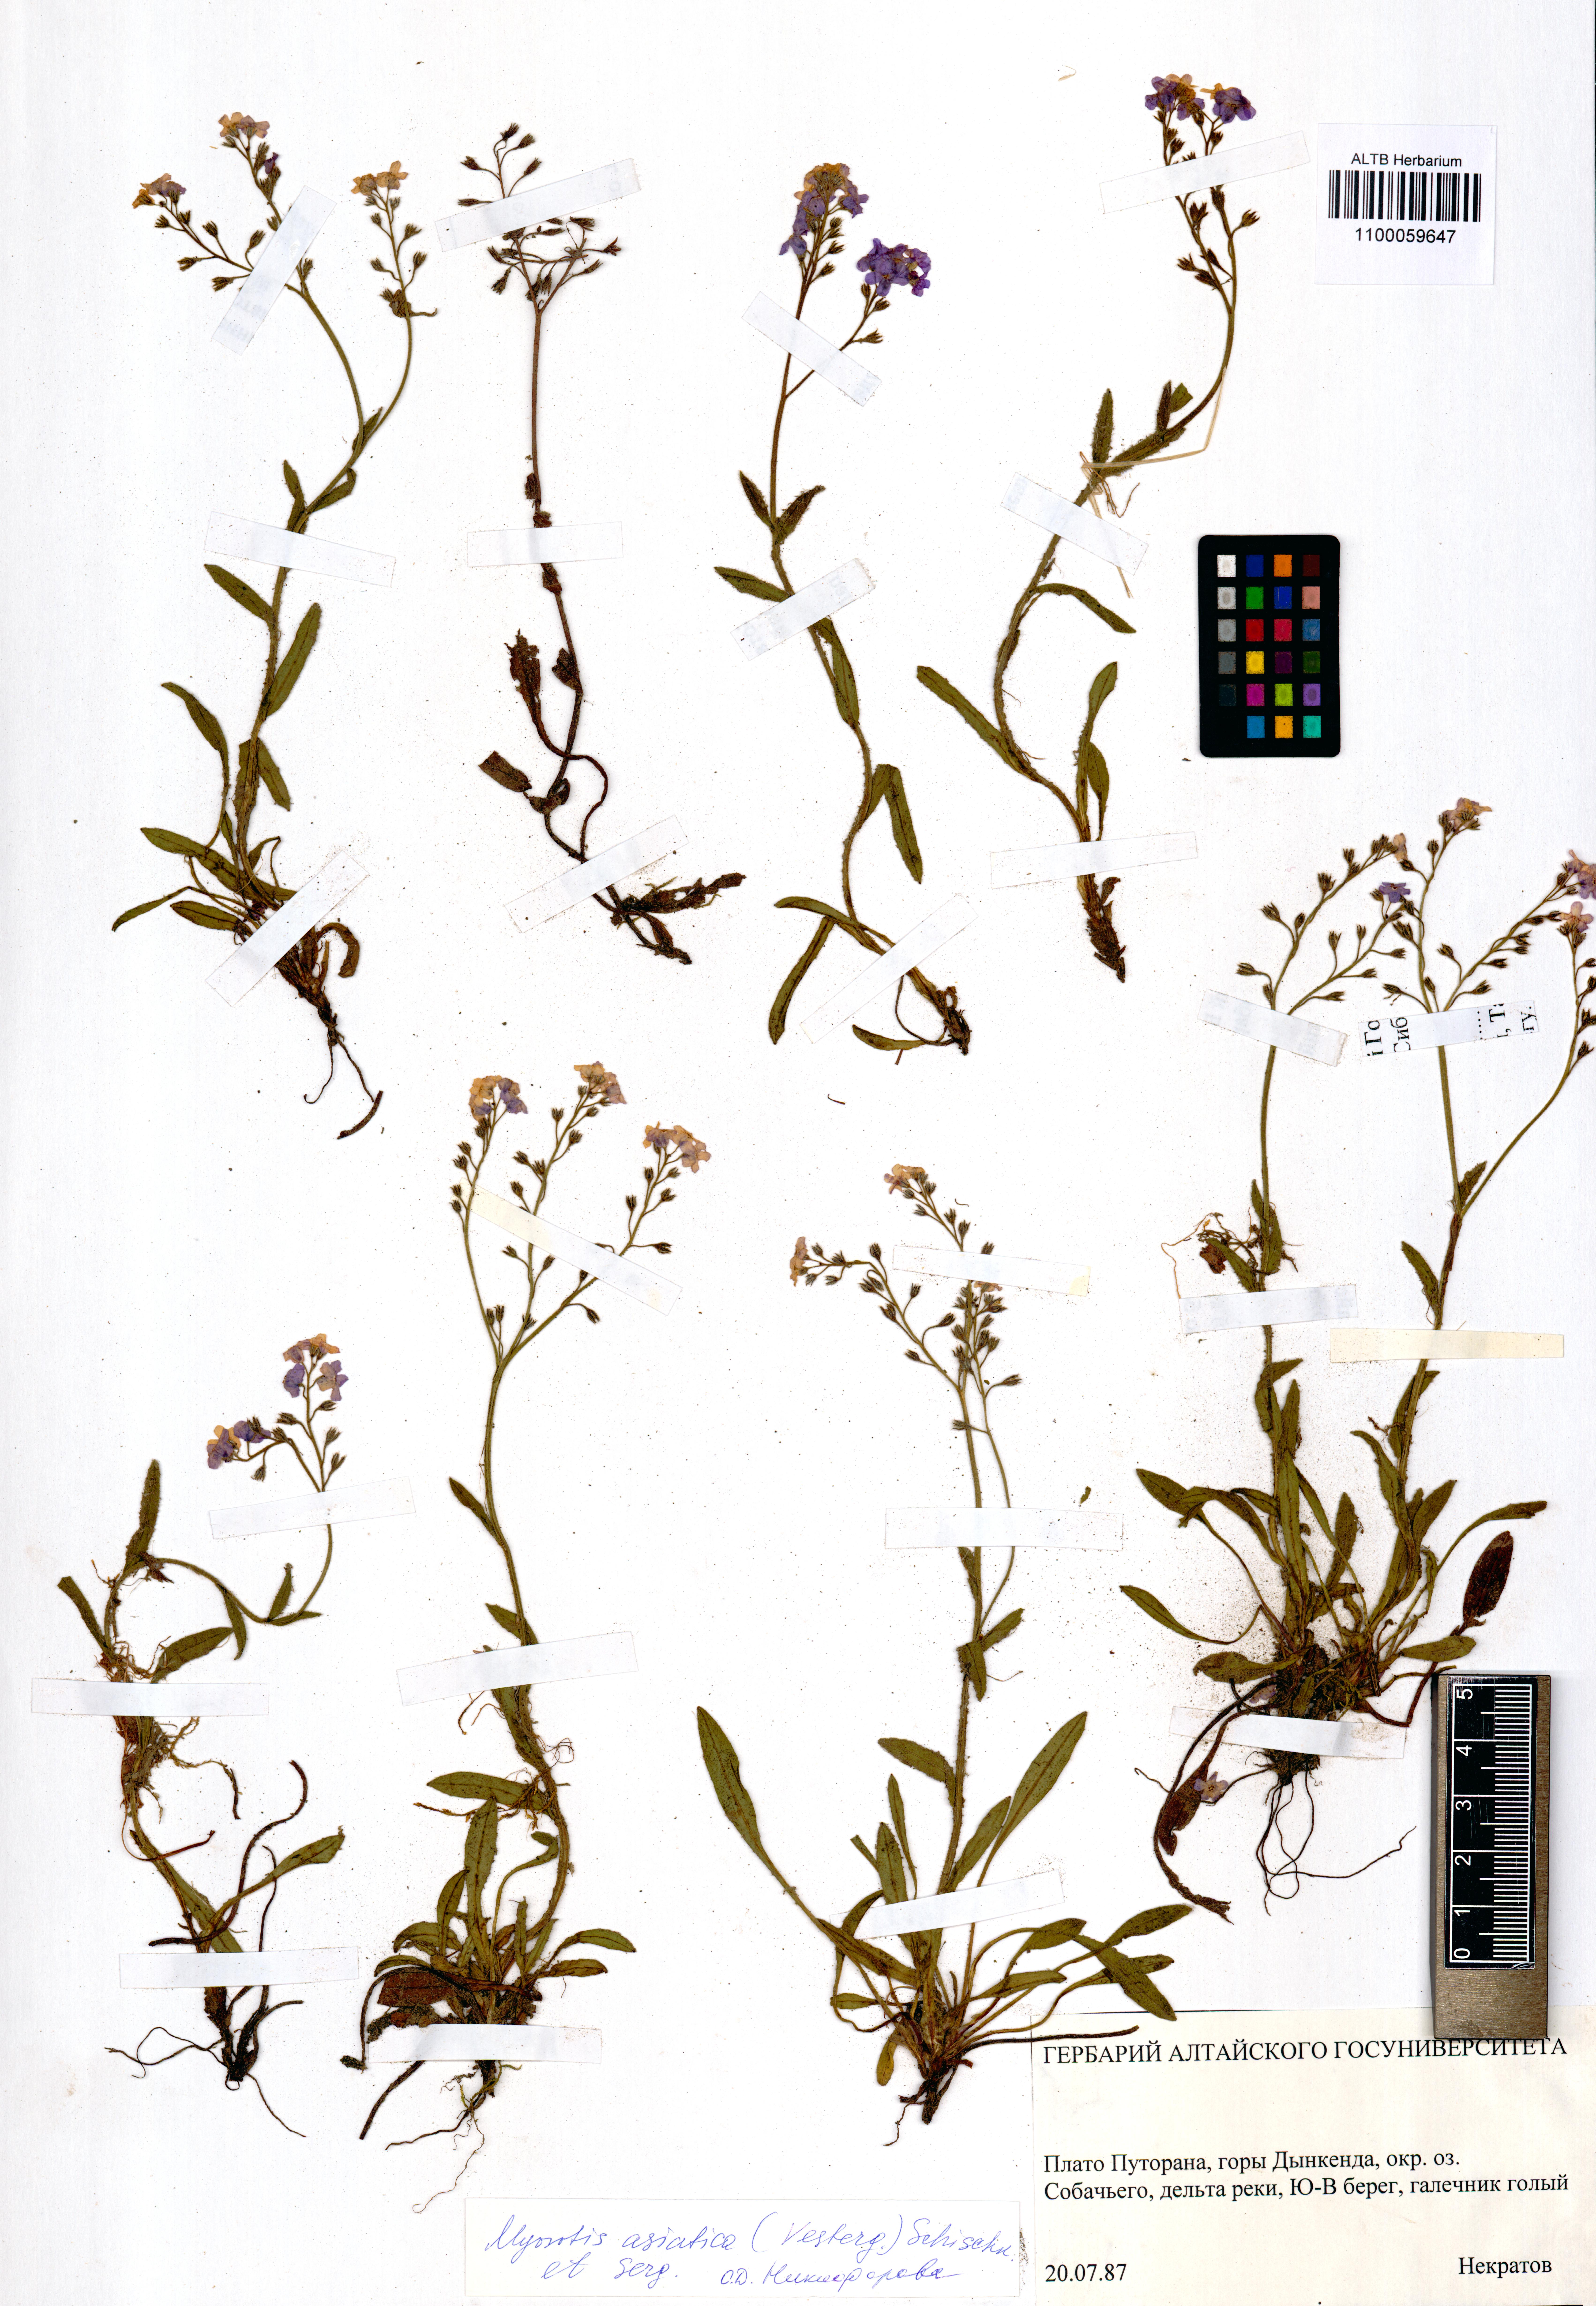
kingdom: Plantae
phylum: Tracheophyta
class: Magnoliopsida
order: Boraginales
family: Boraginaceae
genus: Myosotis
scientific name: Myosotis asiatica
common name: Asian forget-me-not
